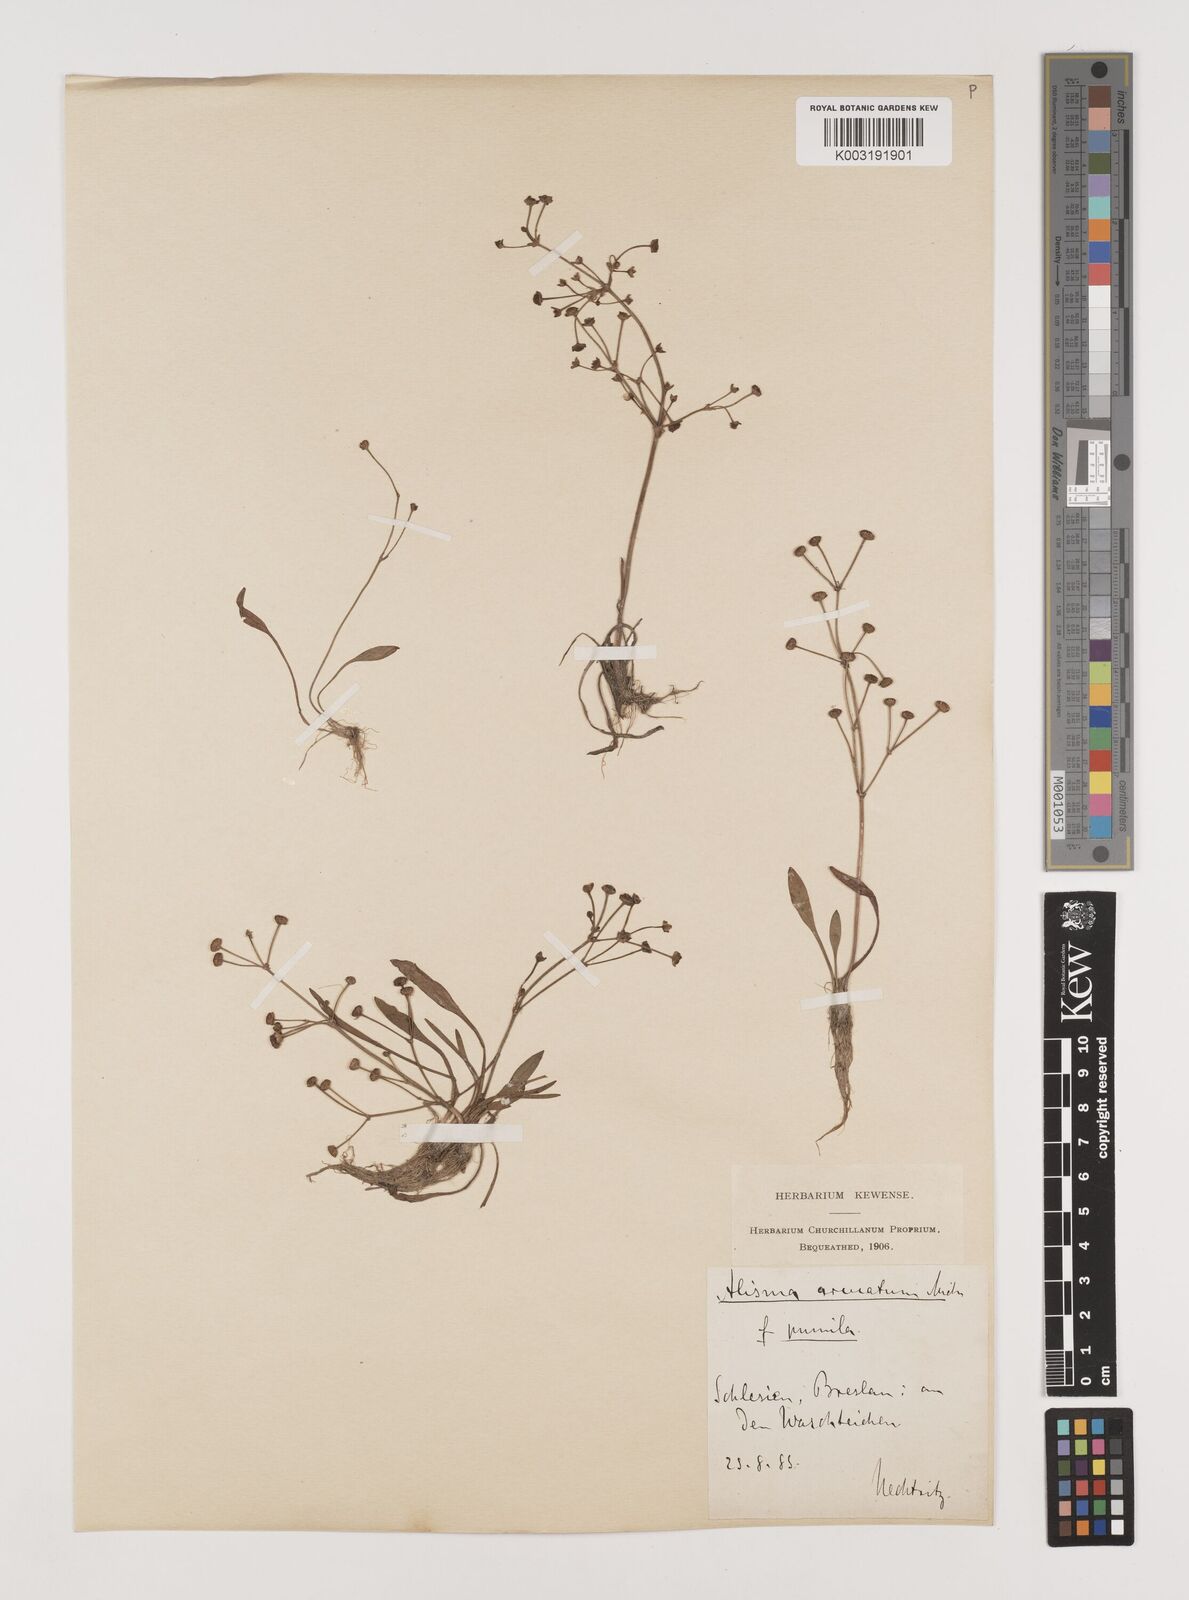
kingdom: Plantae
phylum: Tracheophyta
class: Liliopsida
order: Alismatales
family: Alismataceae
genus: Alisma
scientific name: Alisma gramineum
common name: Ribbon-leaved water-plantain
